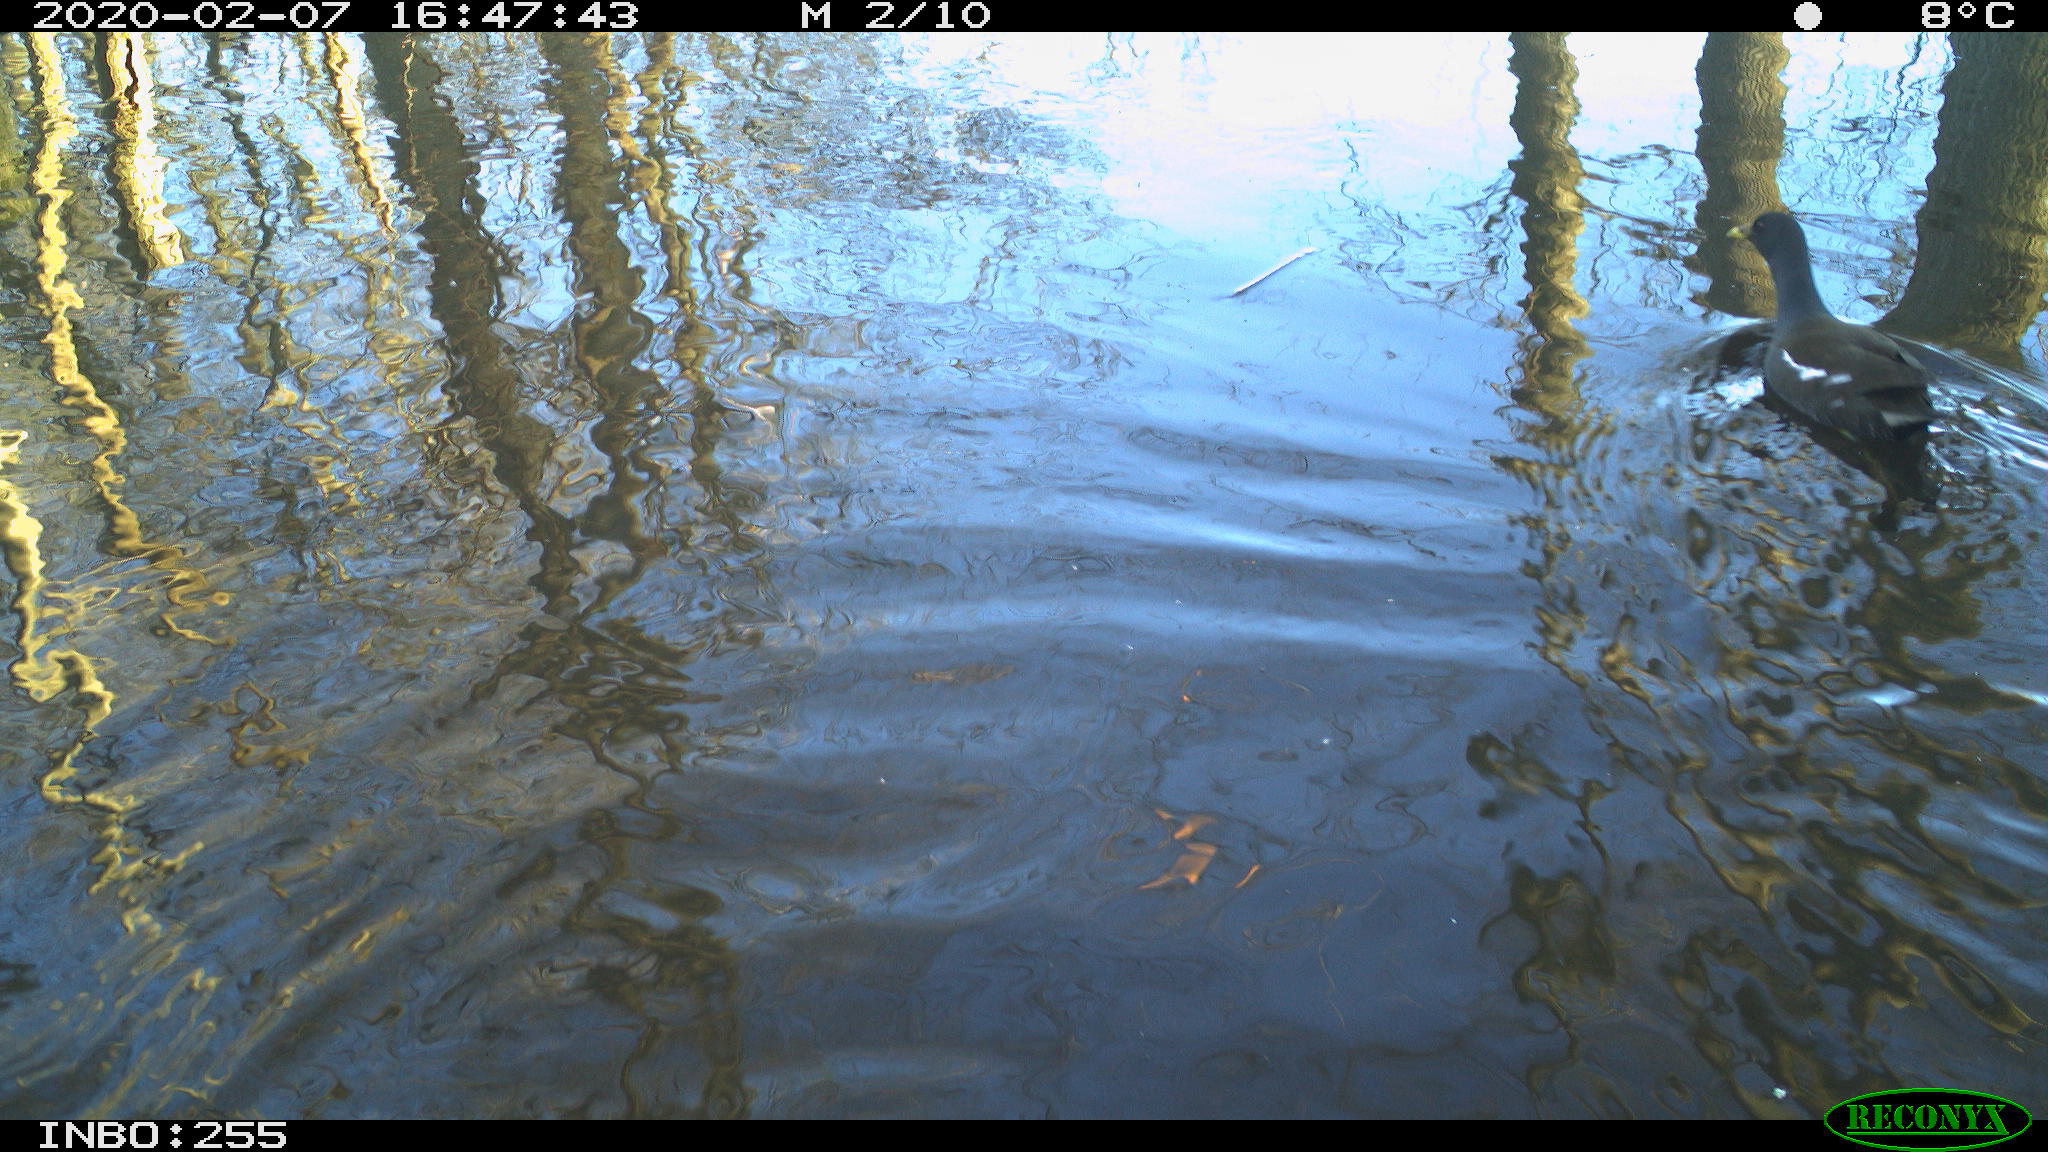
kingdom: Animalia
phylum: Chordata
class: Aves
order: Gruiformes
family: Rallidae
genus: Gallinula
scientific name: Gallinula chloropus
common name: Common moorhen
